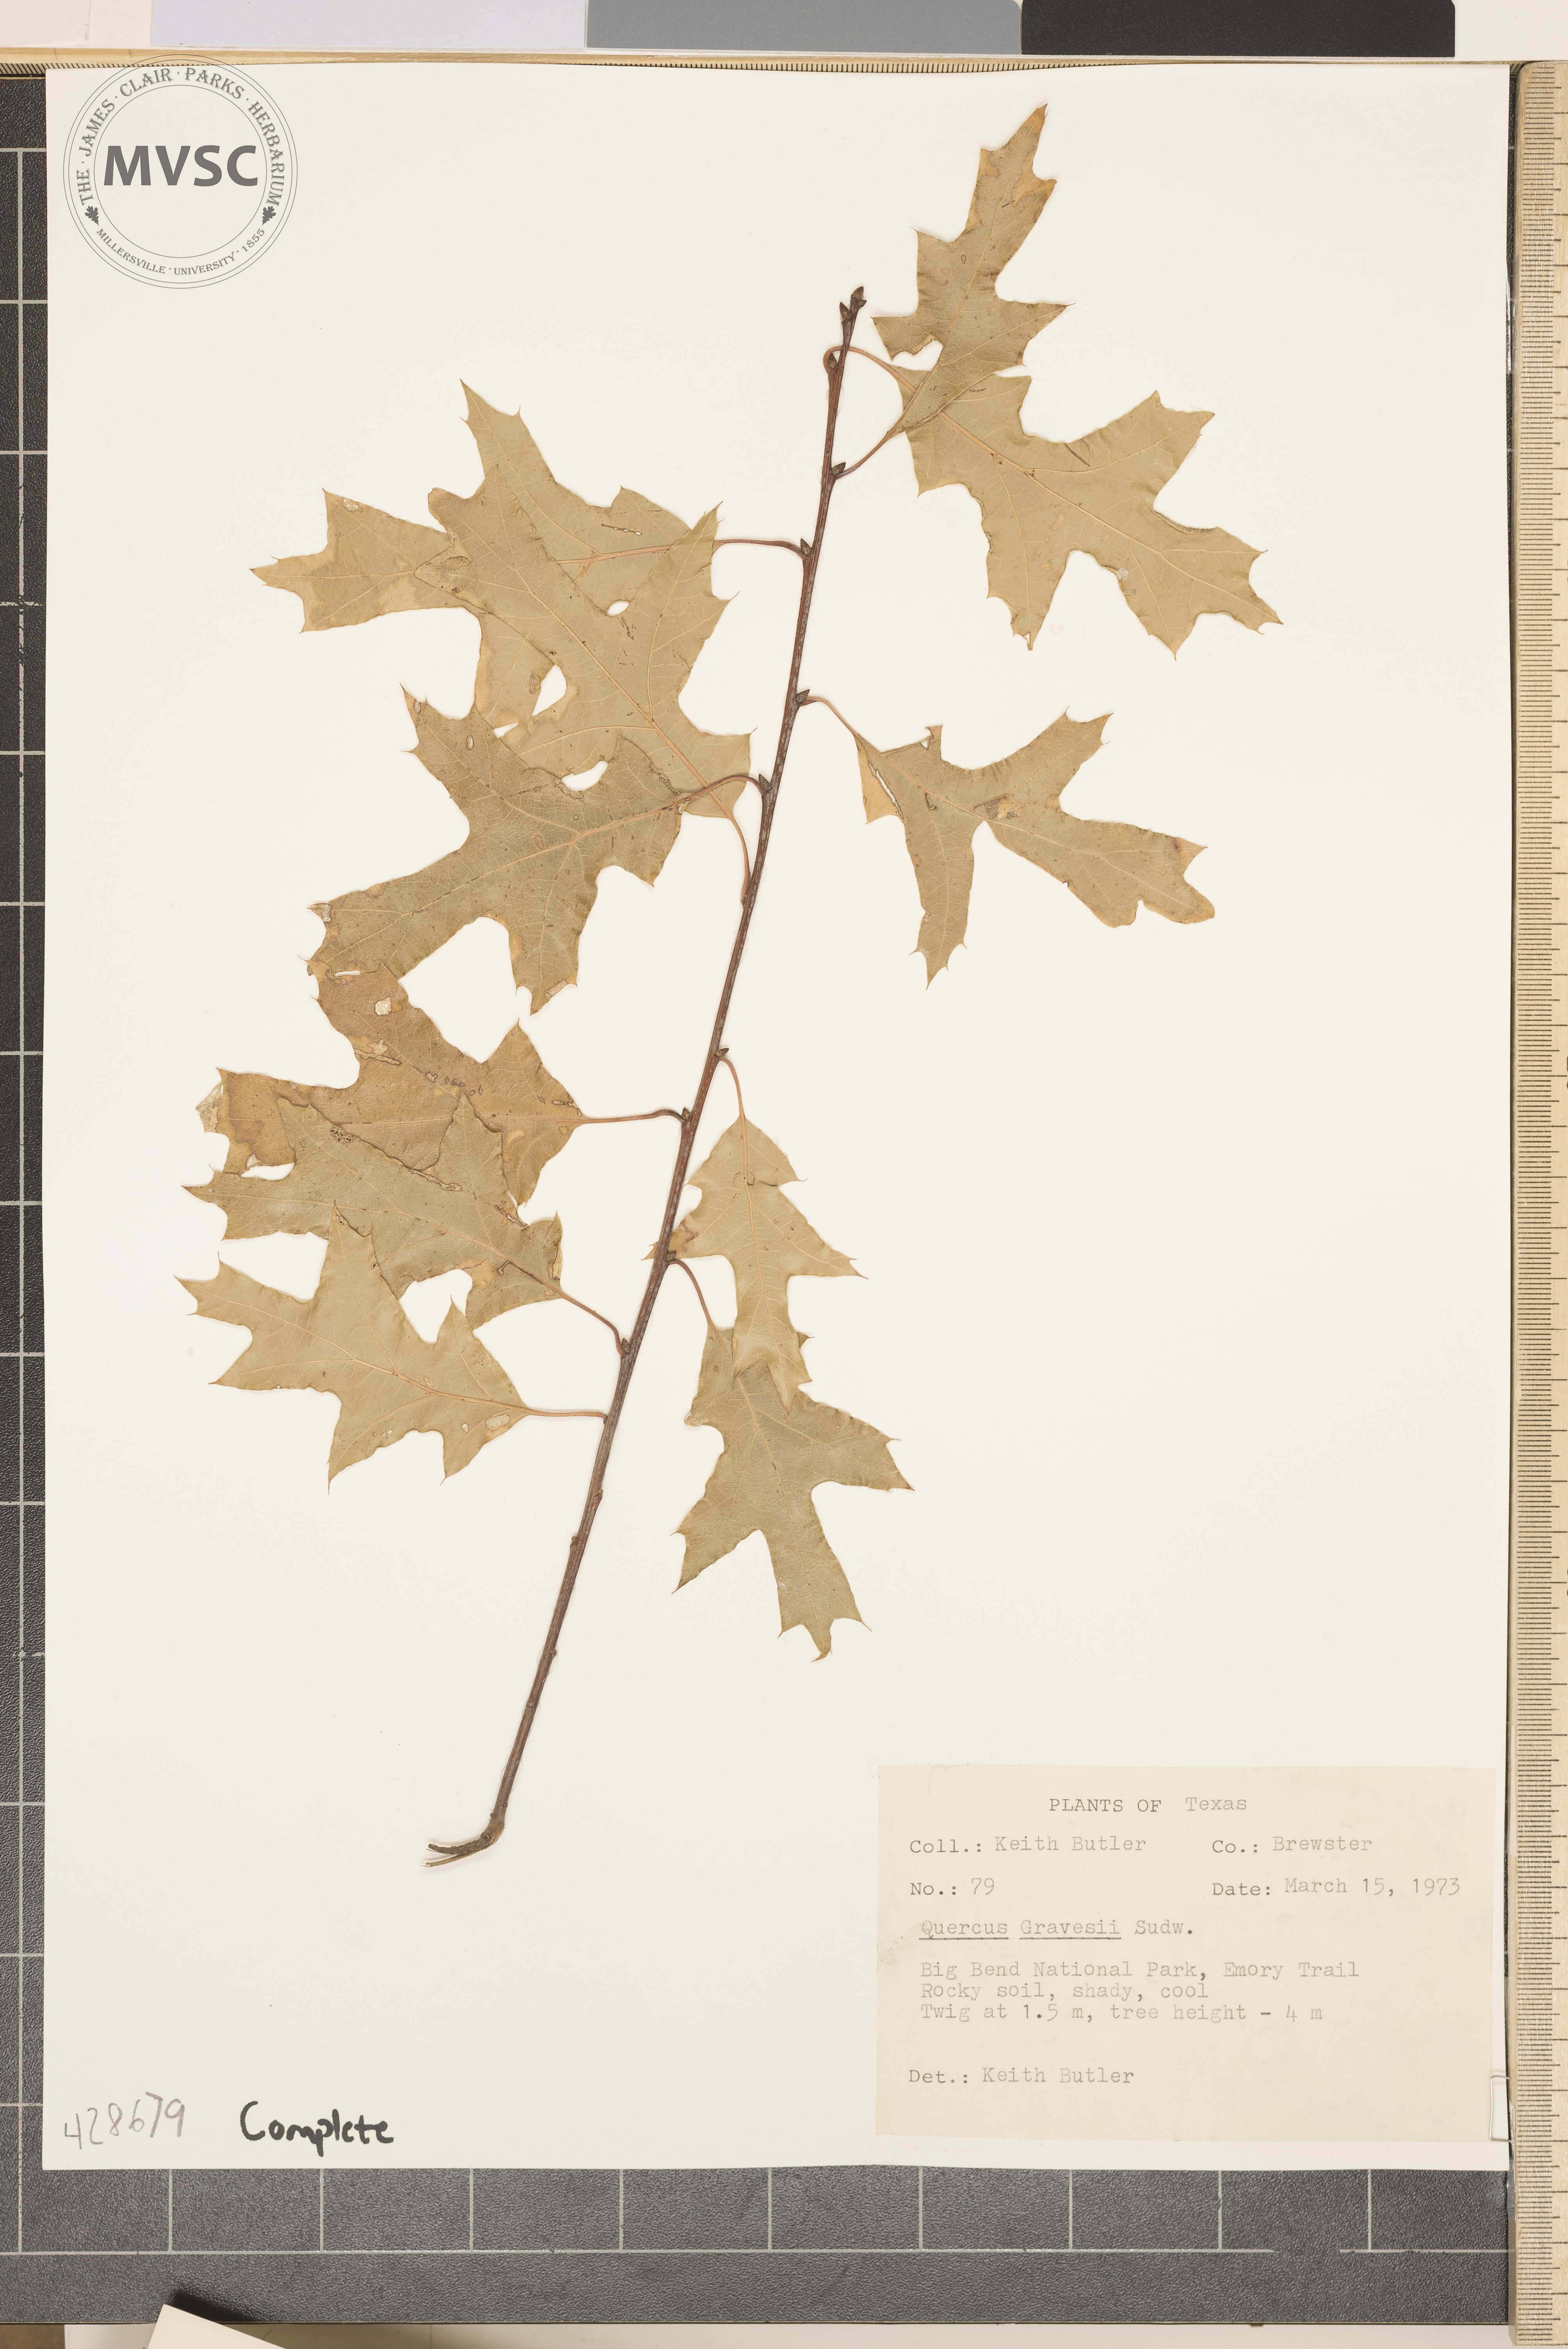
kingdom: Plantae
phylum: Tracheophyta
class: Magnoliopsida
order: Fagales
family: Fagaceae
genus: Quercus
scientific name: Quercus gravesii
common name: Chisos red oak
